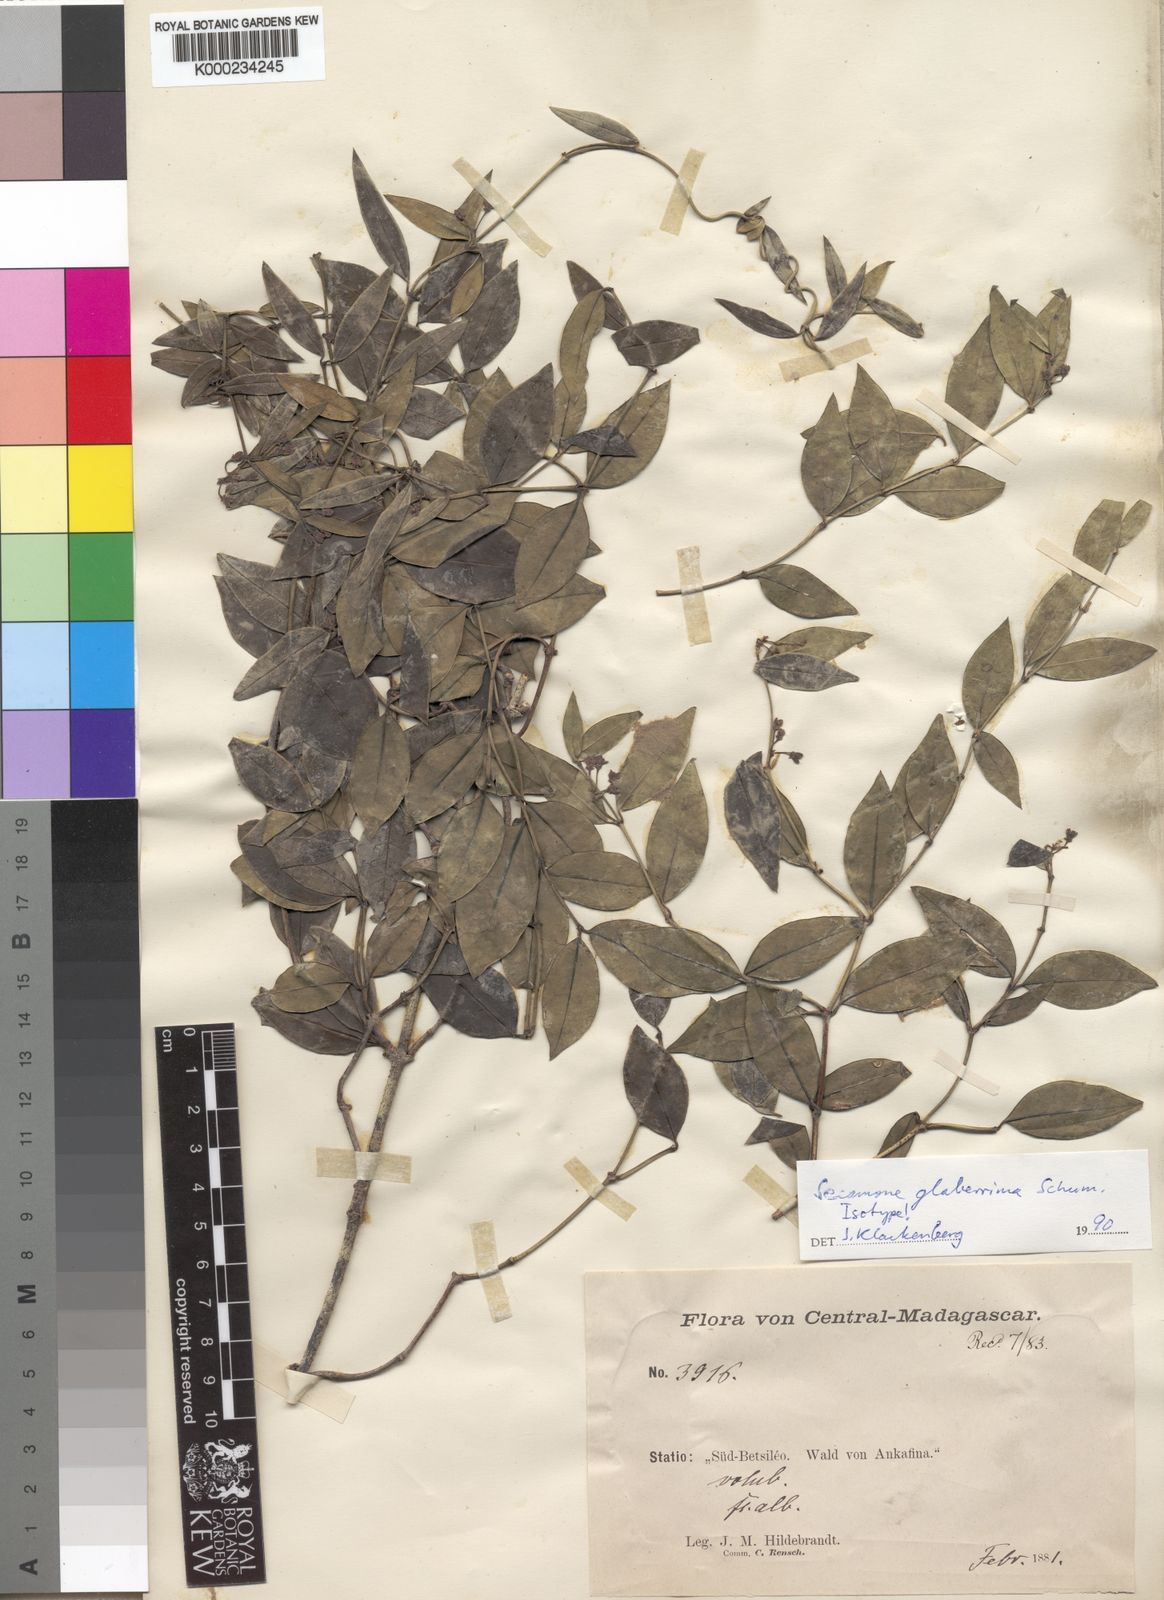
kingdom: Plantae
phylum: Tracheophyta
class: Magnoliopsida
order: Gentianales
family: Apocynaceae
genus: Secamone
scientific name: Secamone glaberrima
